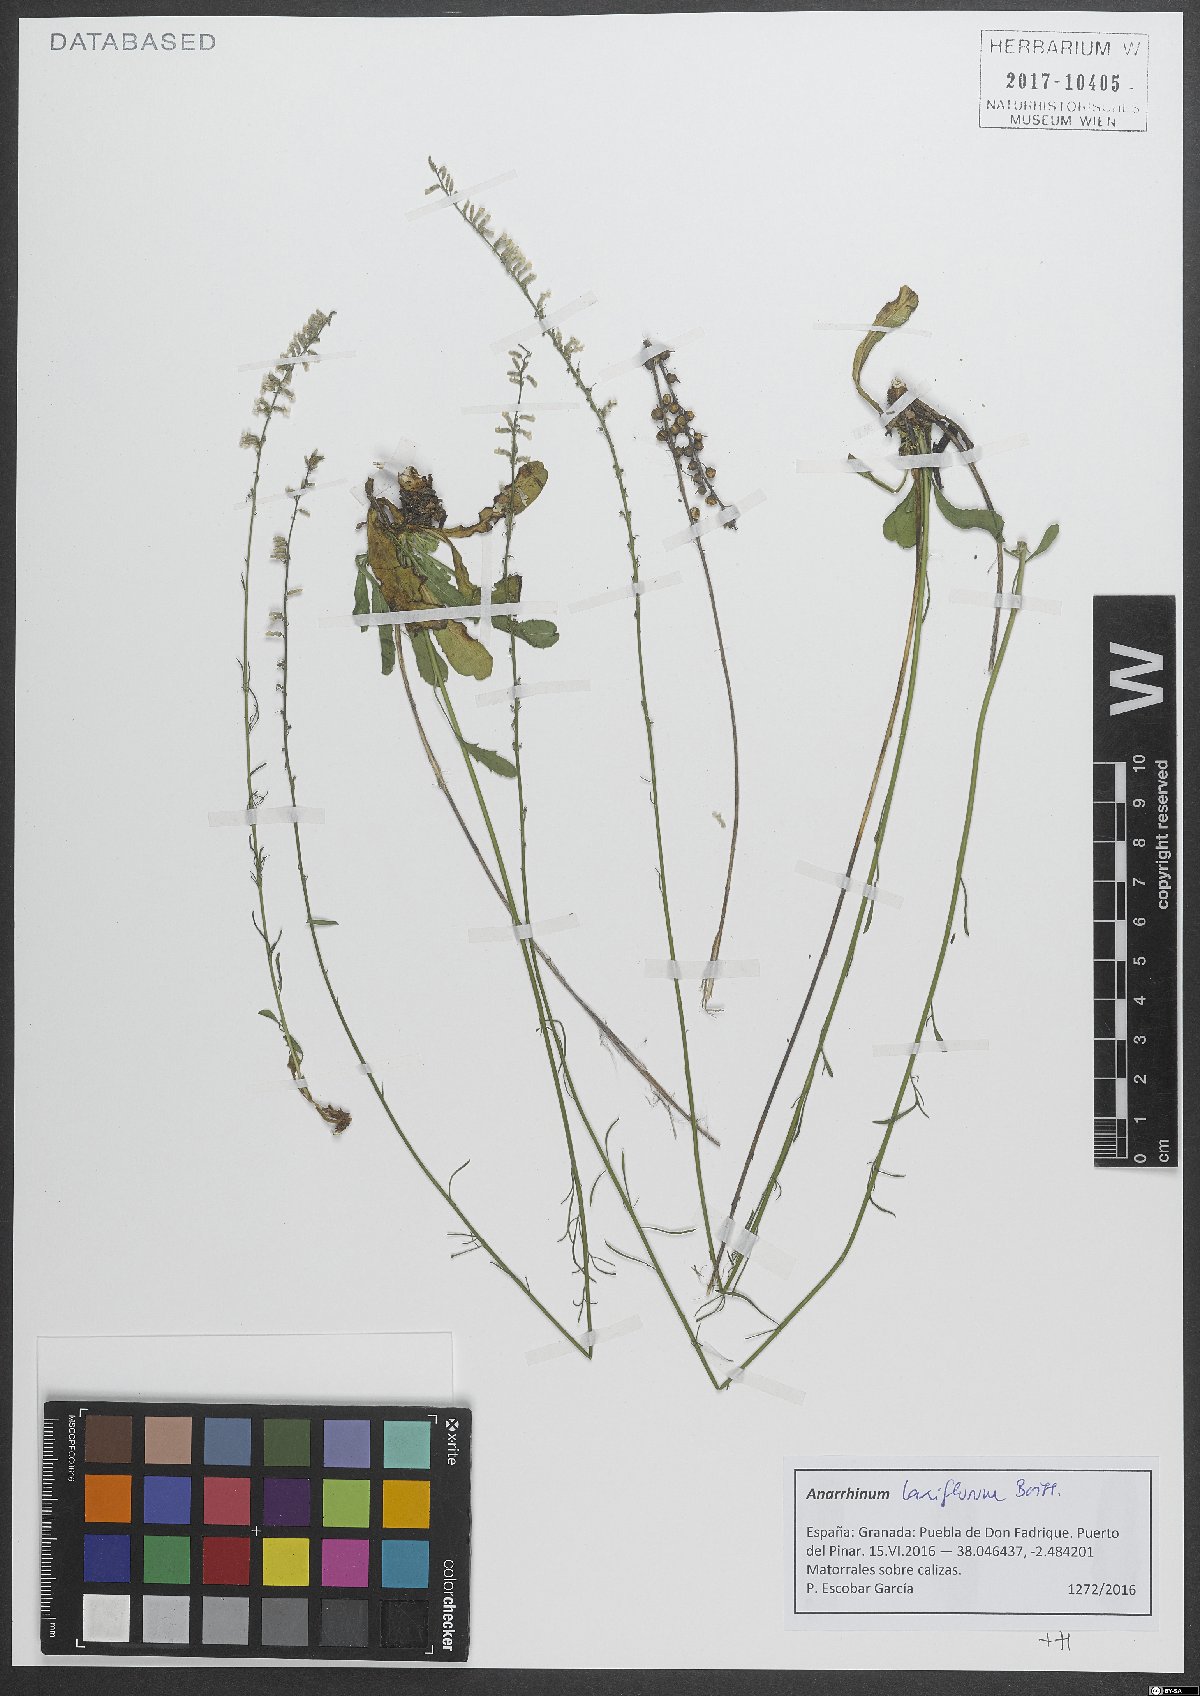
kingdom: Plantae
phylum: Tracheophyta
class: Magnoliopsida
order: Lamiales
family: Plantaginaceae
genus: Anarrhinum
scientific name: Anarrhinum laxiflorum
